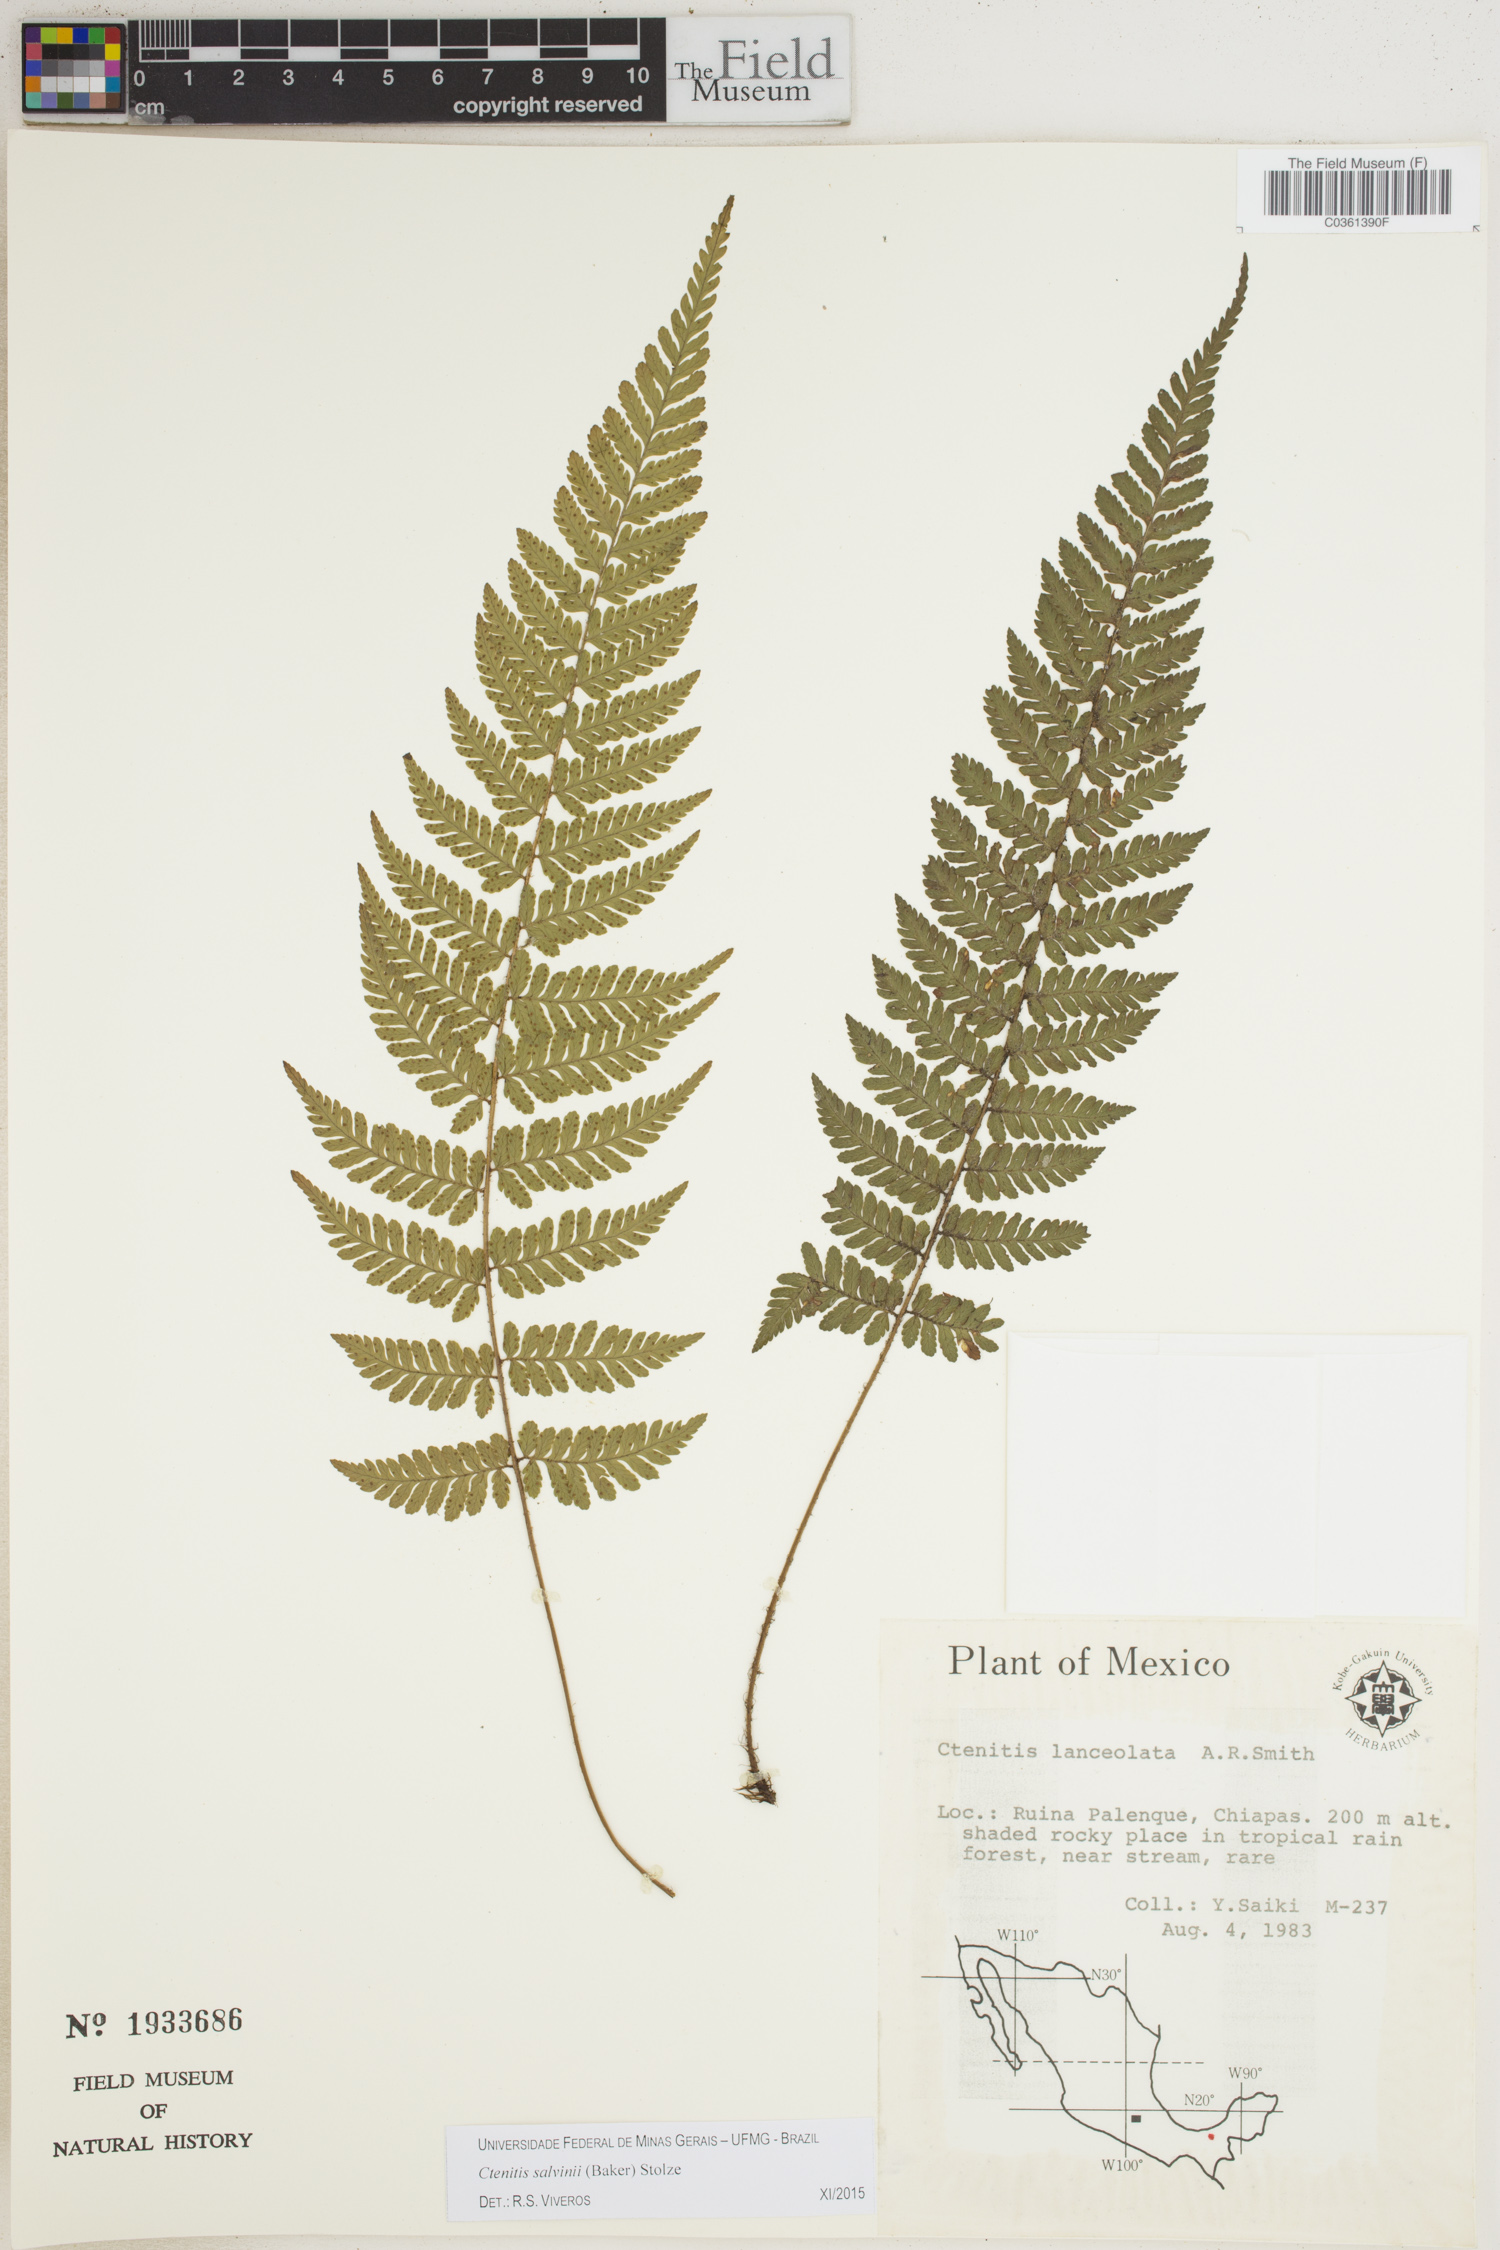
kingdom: Plantae
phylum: Tracheophyta
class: Polypodiopsida
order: Polypodiales
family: Dryopteridaceae
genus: Ctenitis
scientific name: Ctenitis salvinii
